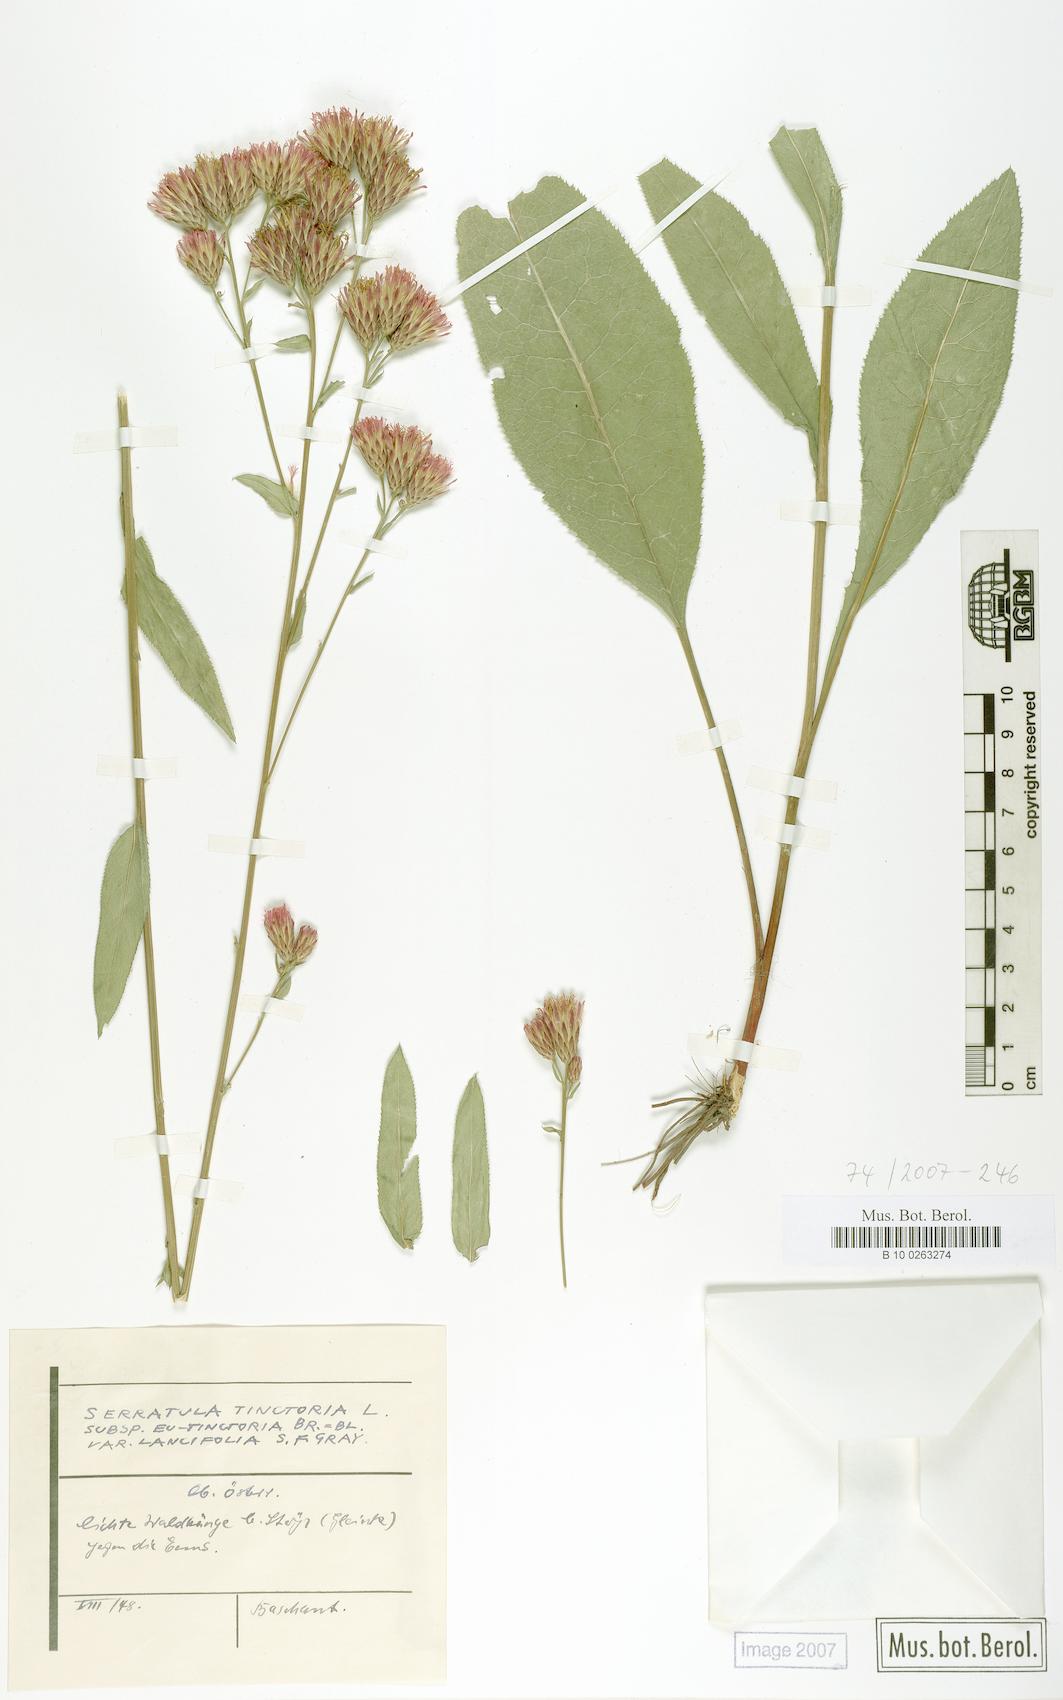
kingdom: Plantae
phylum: Tracheophyta
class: Magnoliopsida
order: Asterales
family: Asteraceae
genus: Serratula
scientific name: Serratula tinctoria
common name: Saw-wort
